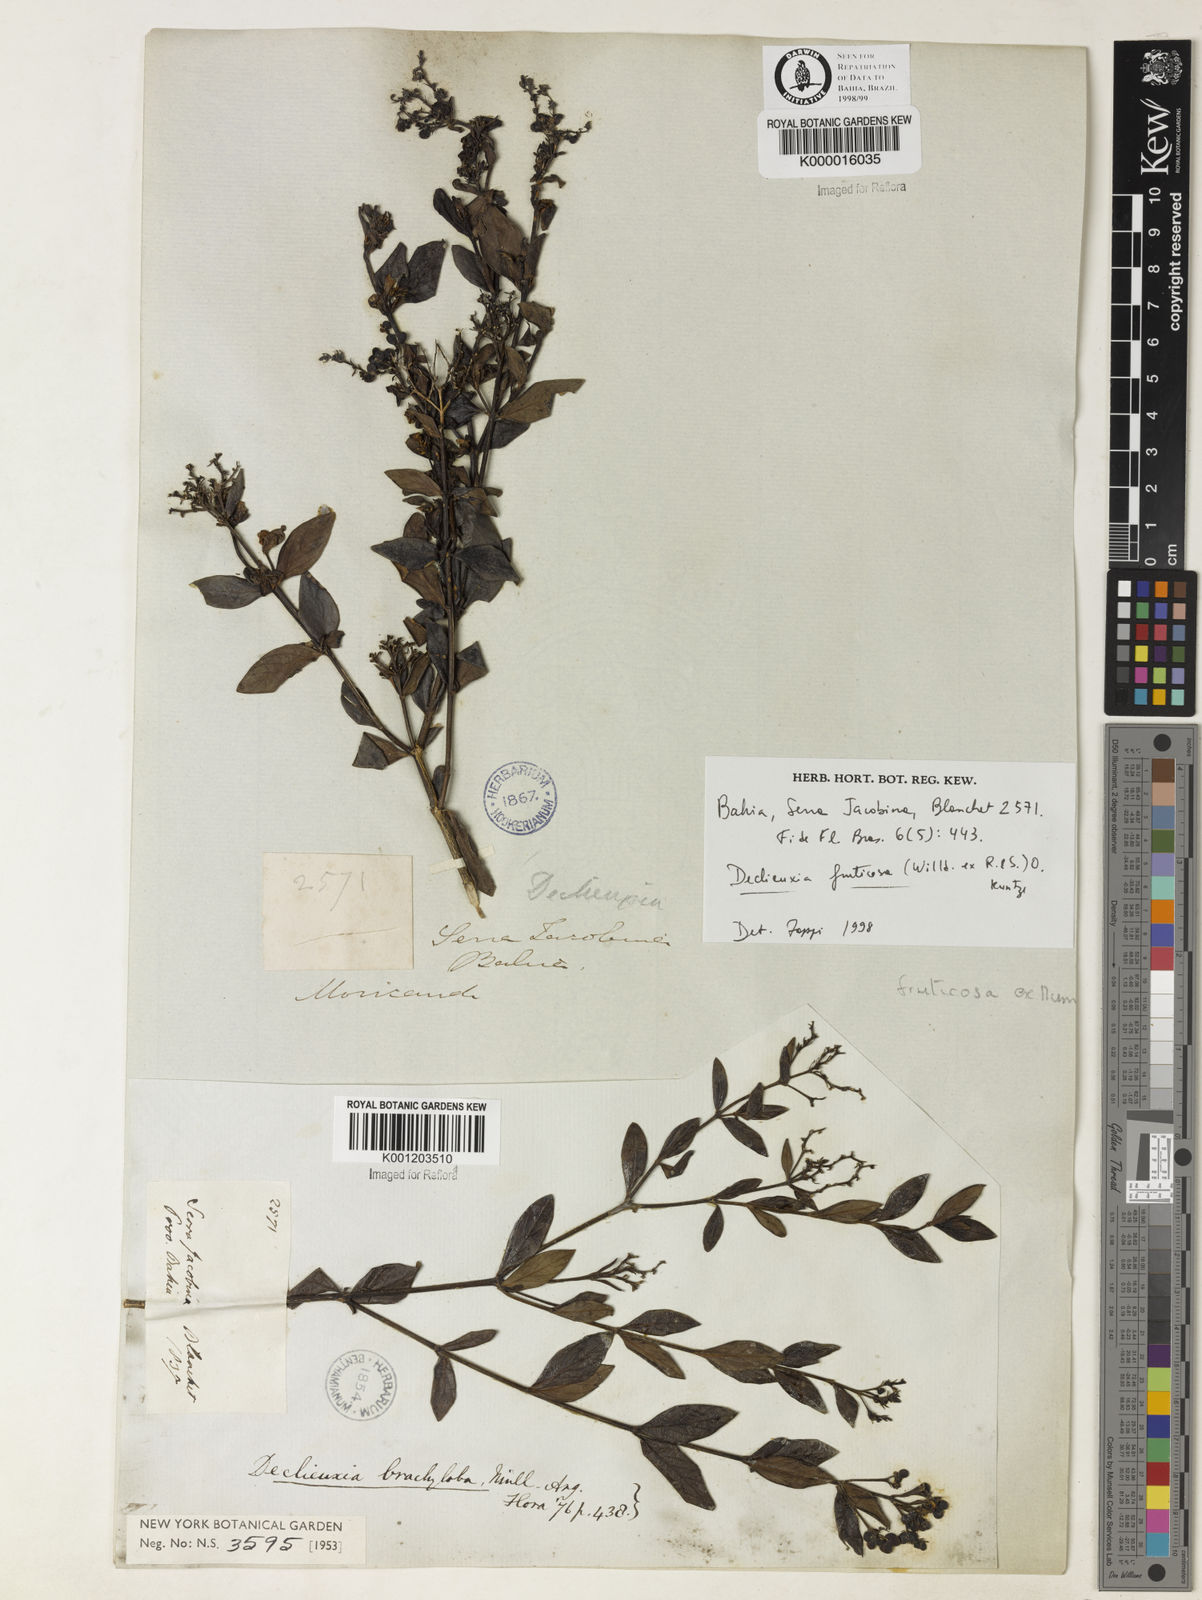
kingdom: Plantae
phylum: Tracheophyta
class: Magnoliopsida
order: Gentianales
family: Rubiaceae
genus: Declieuxia
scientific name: Declieuxia fruticosa
